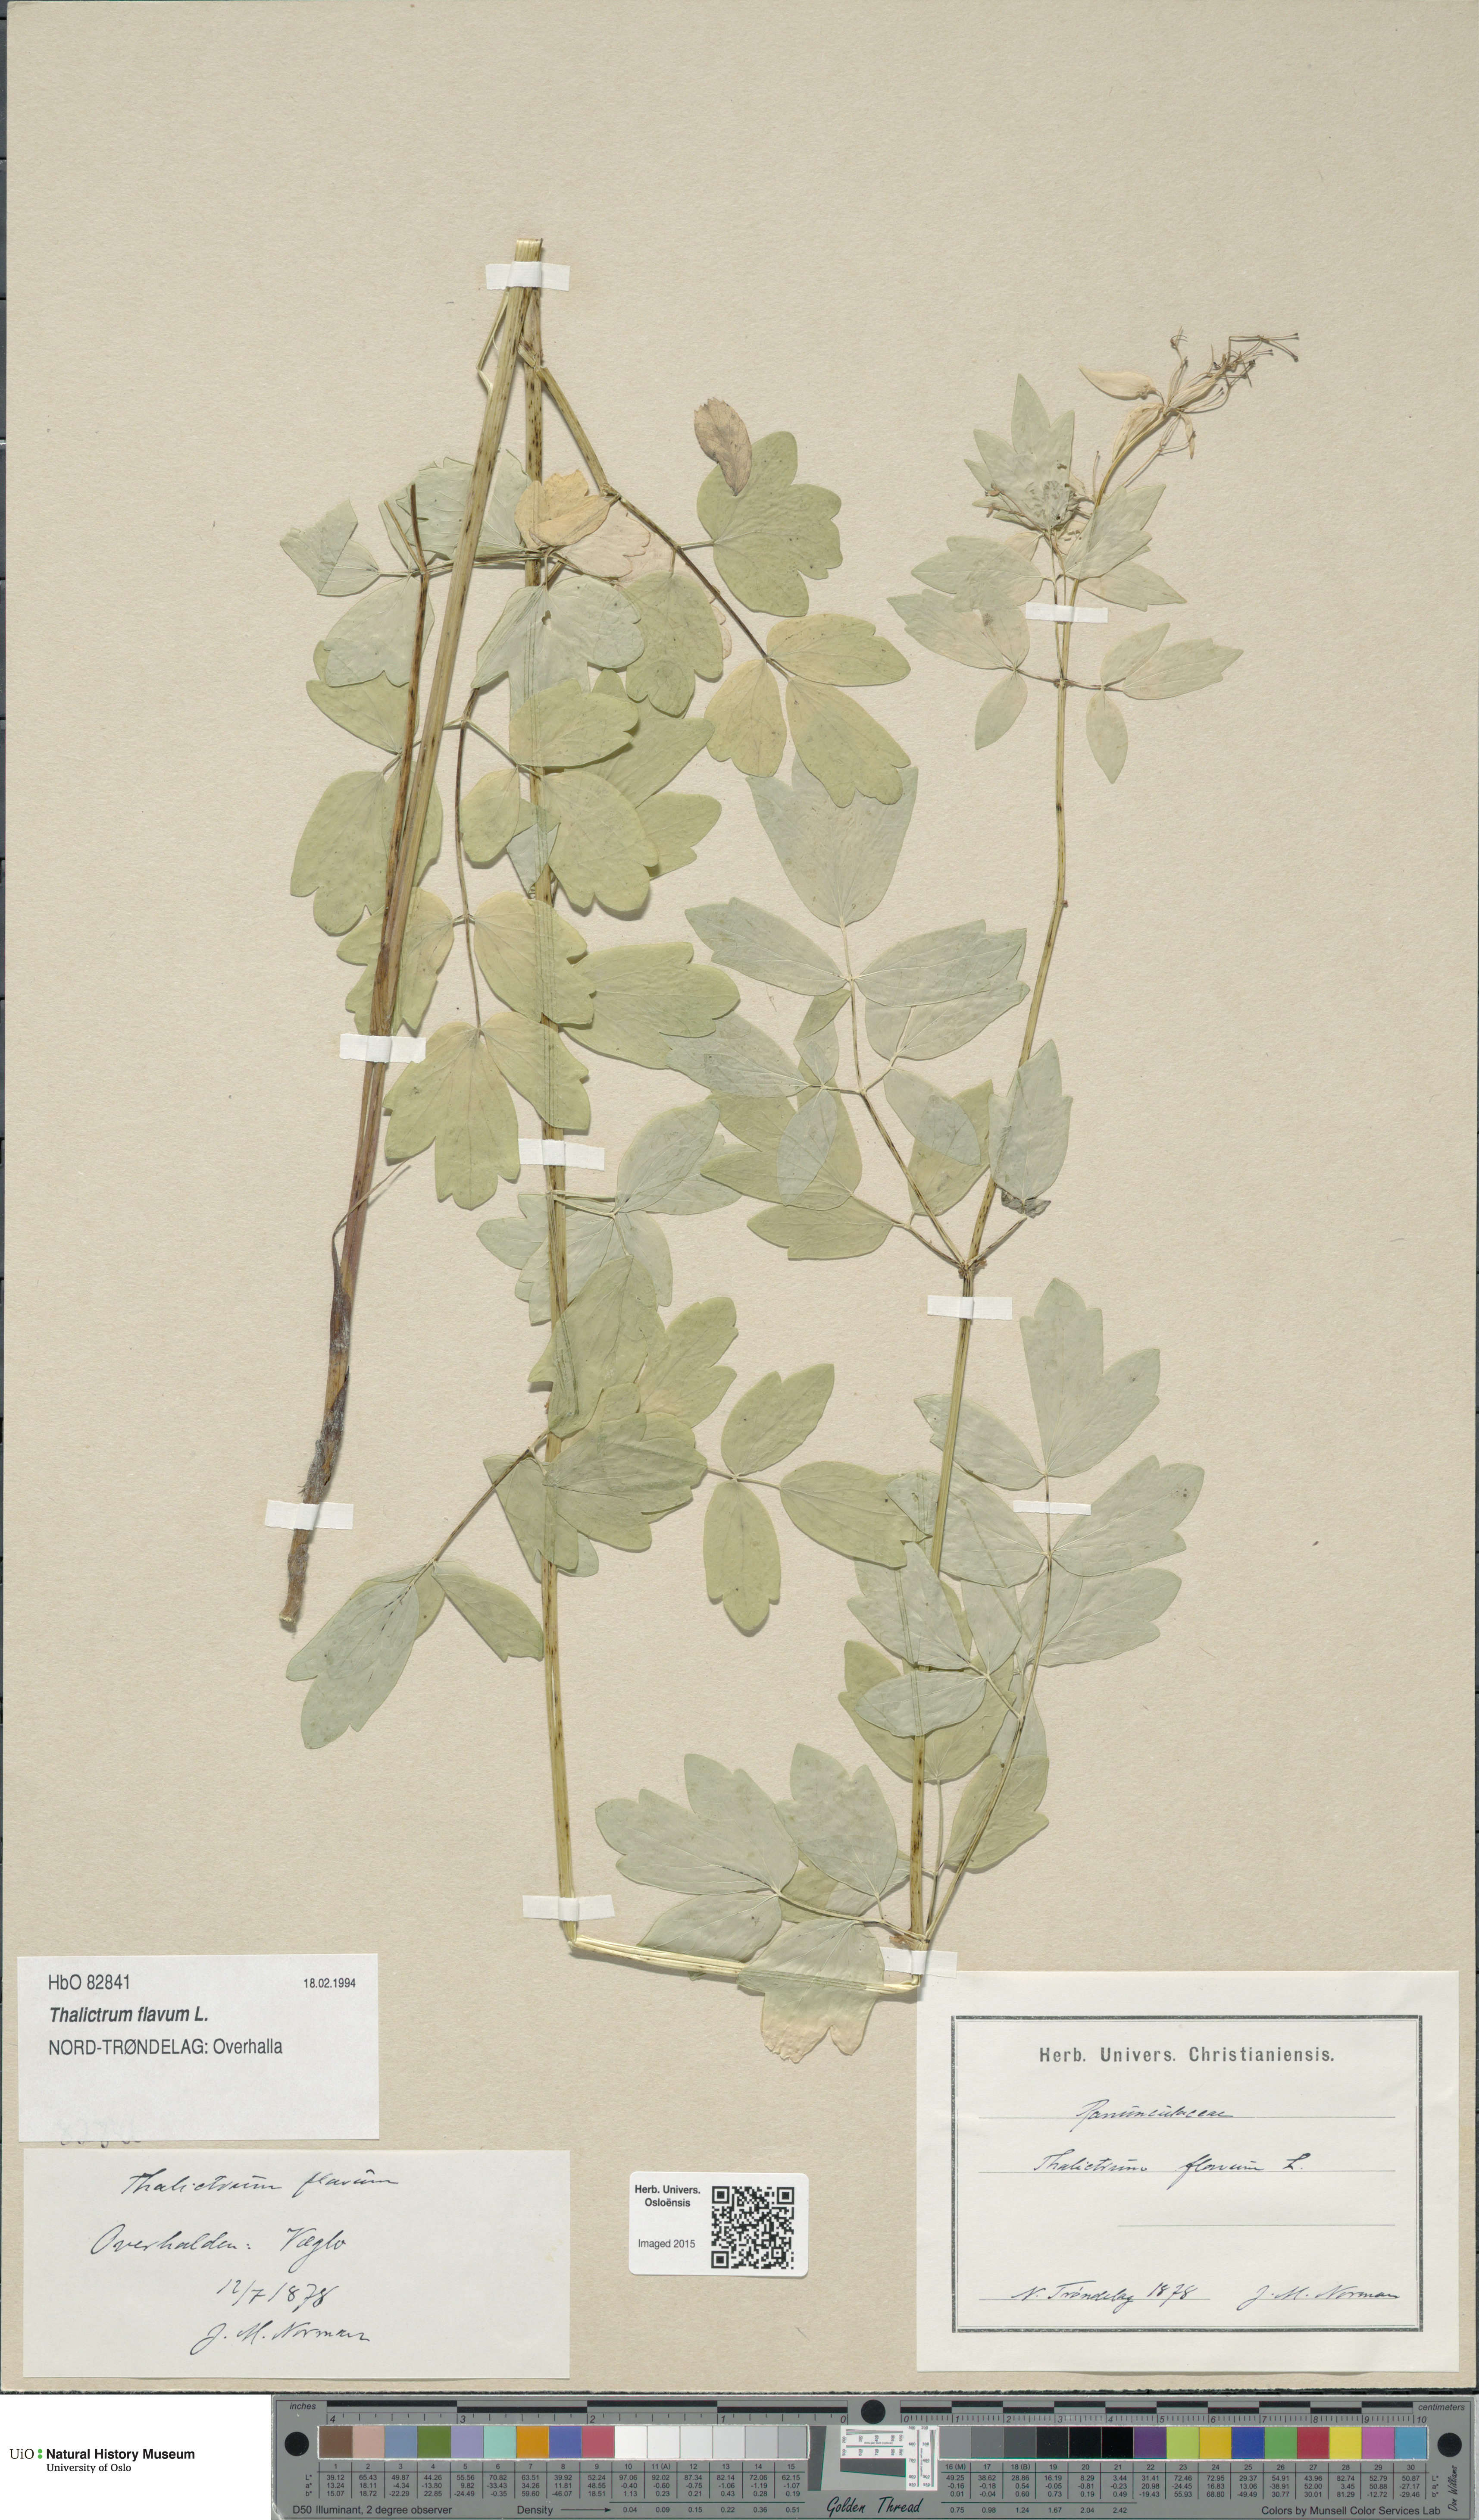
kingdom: Plantae
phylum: Tracheophyta
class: Magnoliopsida
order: Ranunculales
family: Ranunculaceae
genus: Thalictrum
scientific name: Thalictrum flavum
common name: Common meadow-rue
